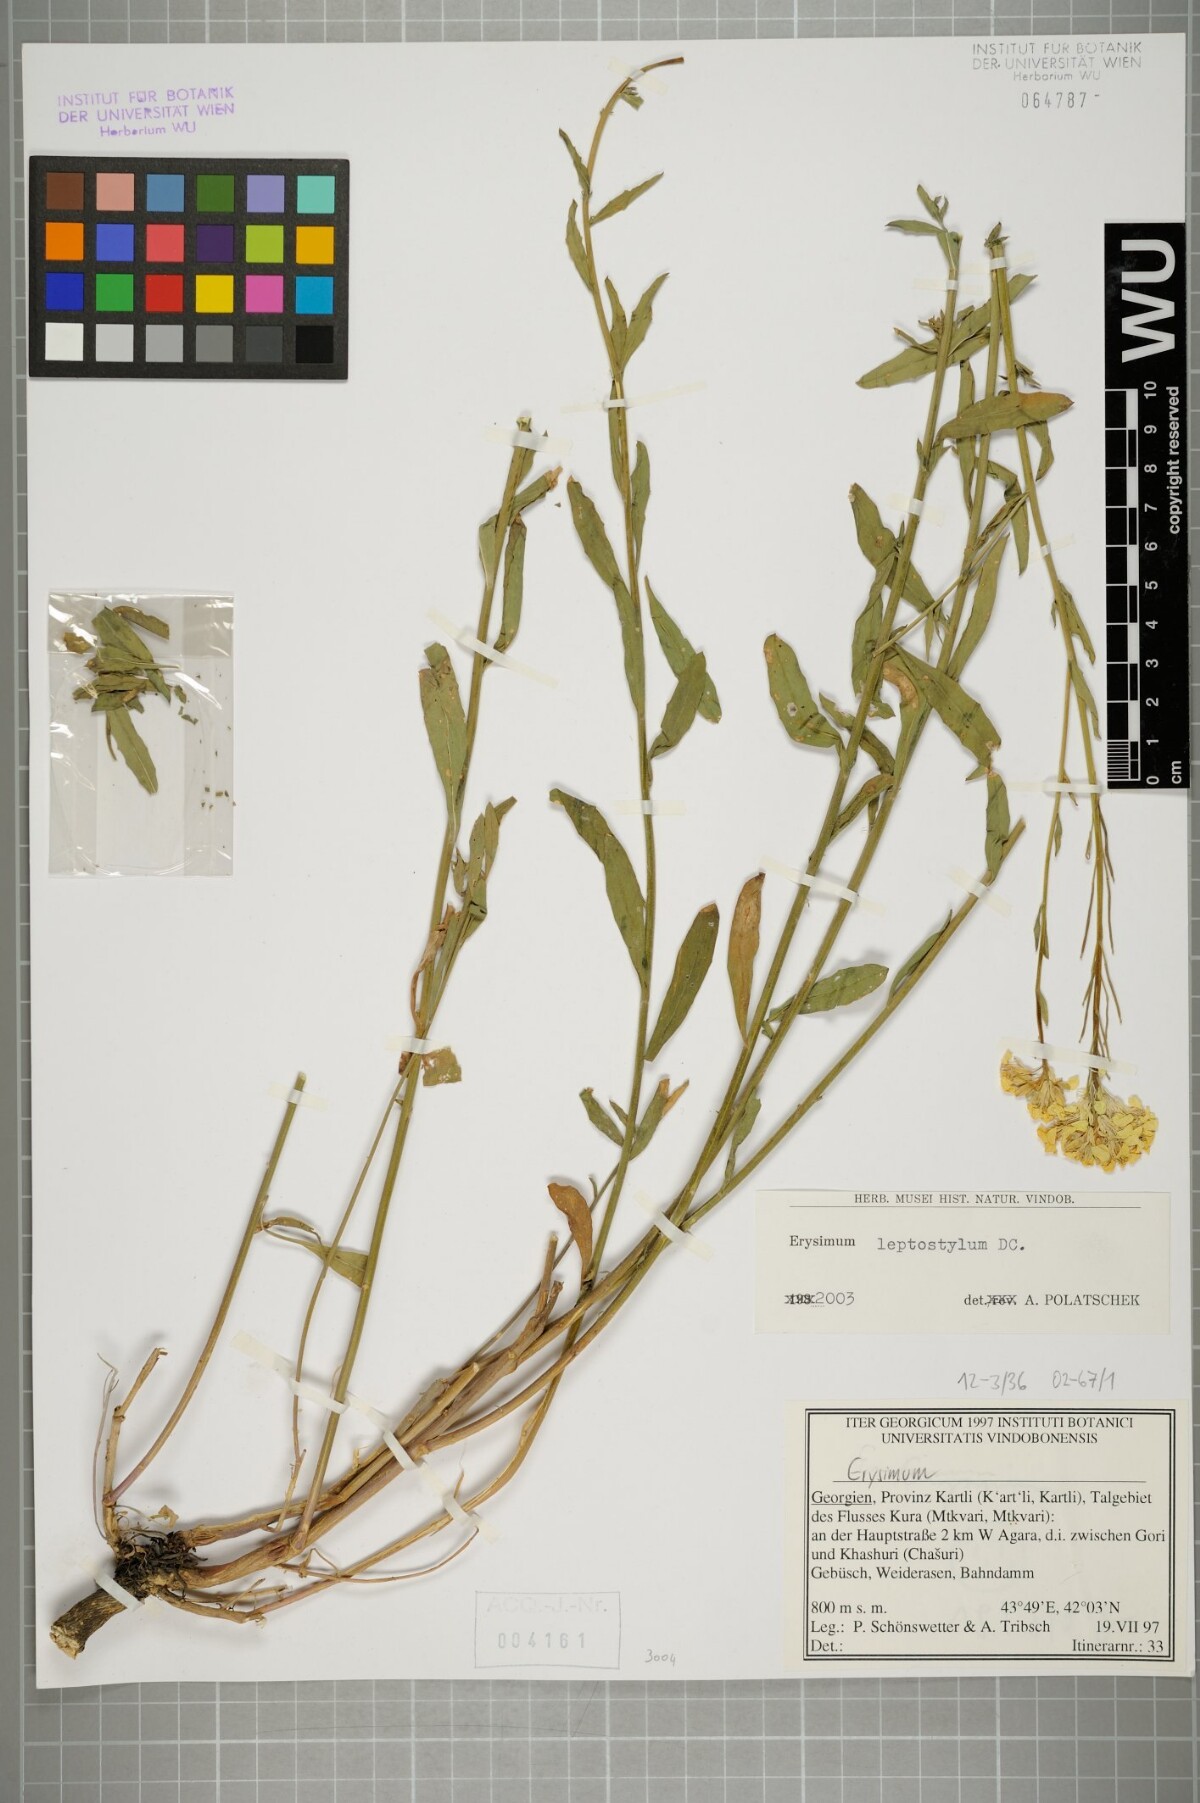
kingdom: Plantae
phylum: Tracheophyta
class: Magnoliopsida
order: Brassicales
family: Brassicaceae
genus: Erysimum
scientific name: Erysimum leptostylum
